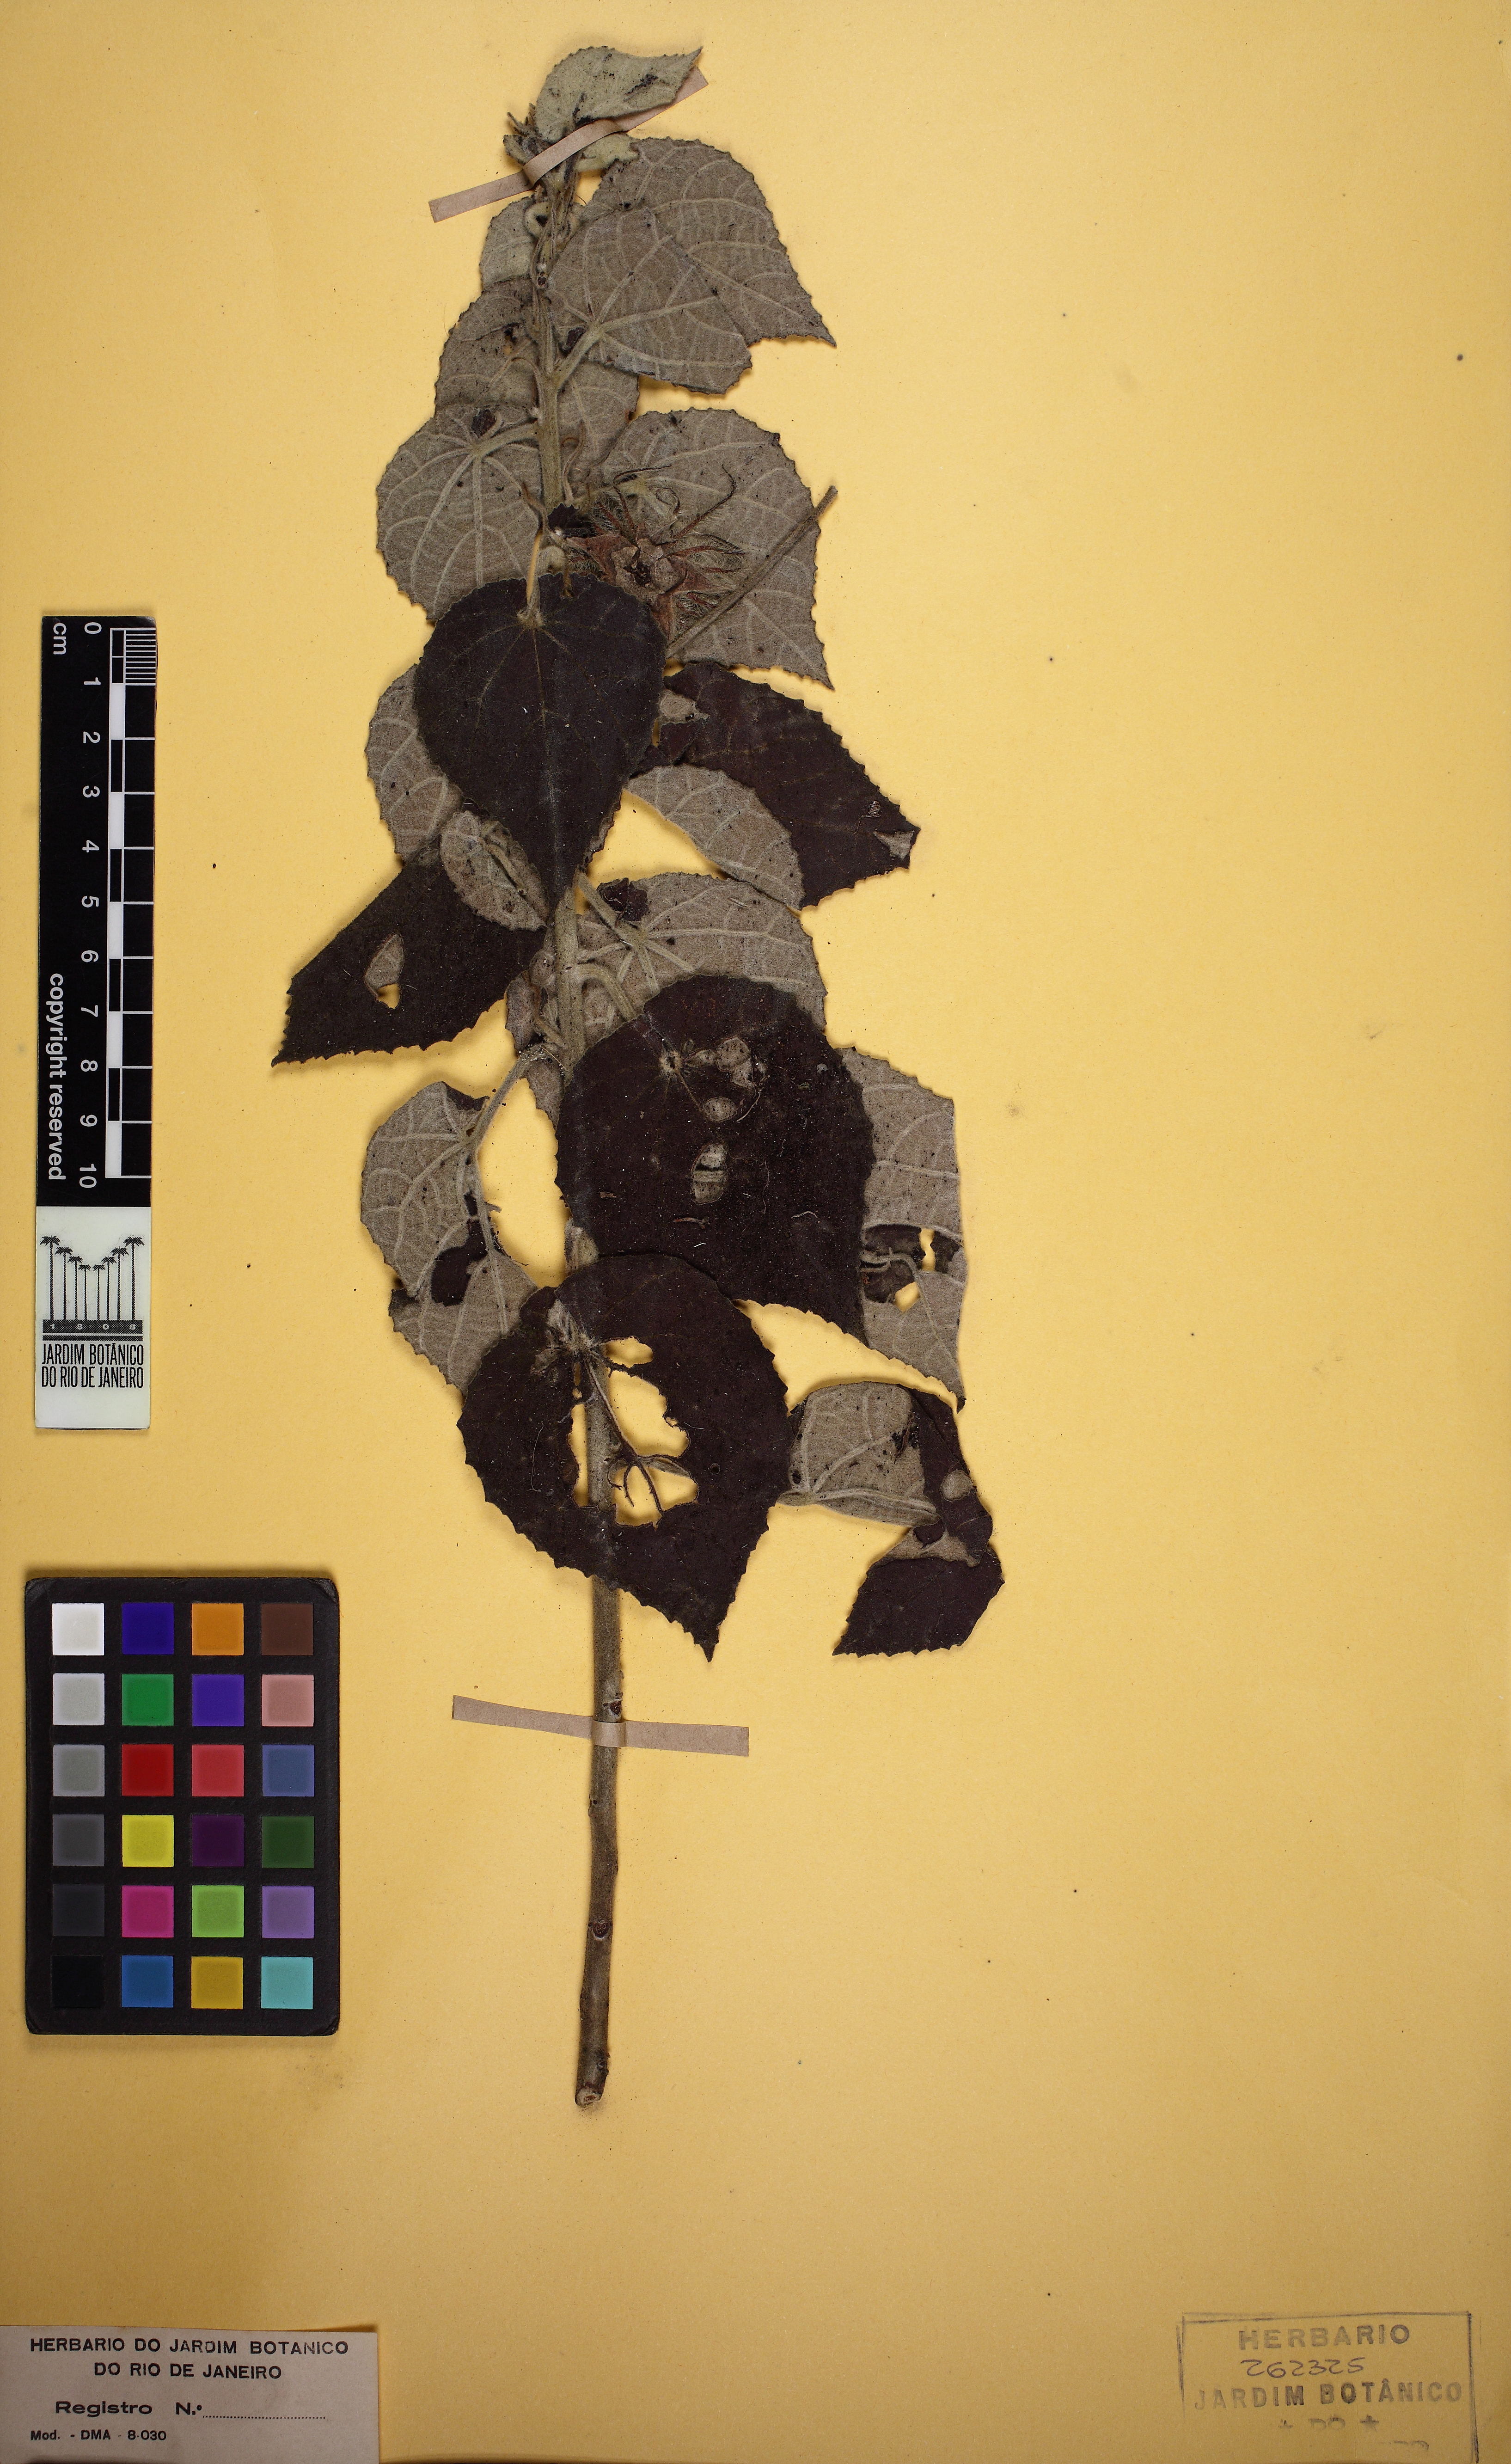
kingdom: Plantae
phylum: Tracheophyta
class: Magnoliopsida
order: Malvales
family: Malvaceae
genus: Pavonia
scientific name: Pavonia
